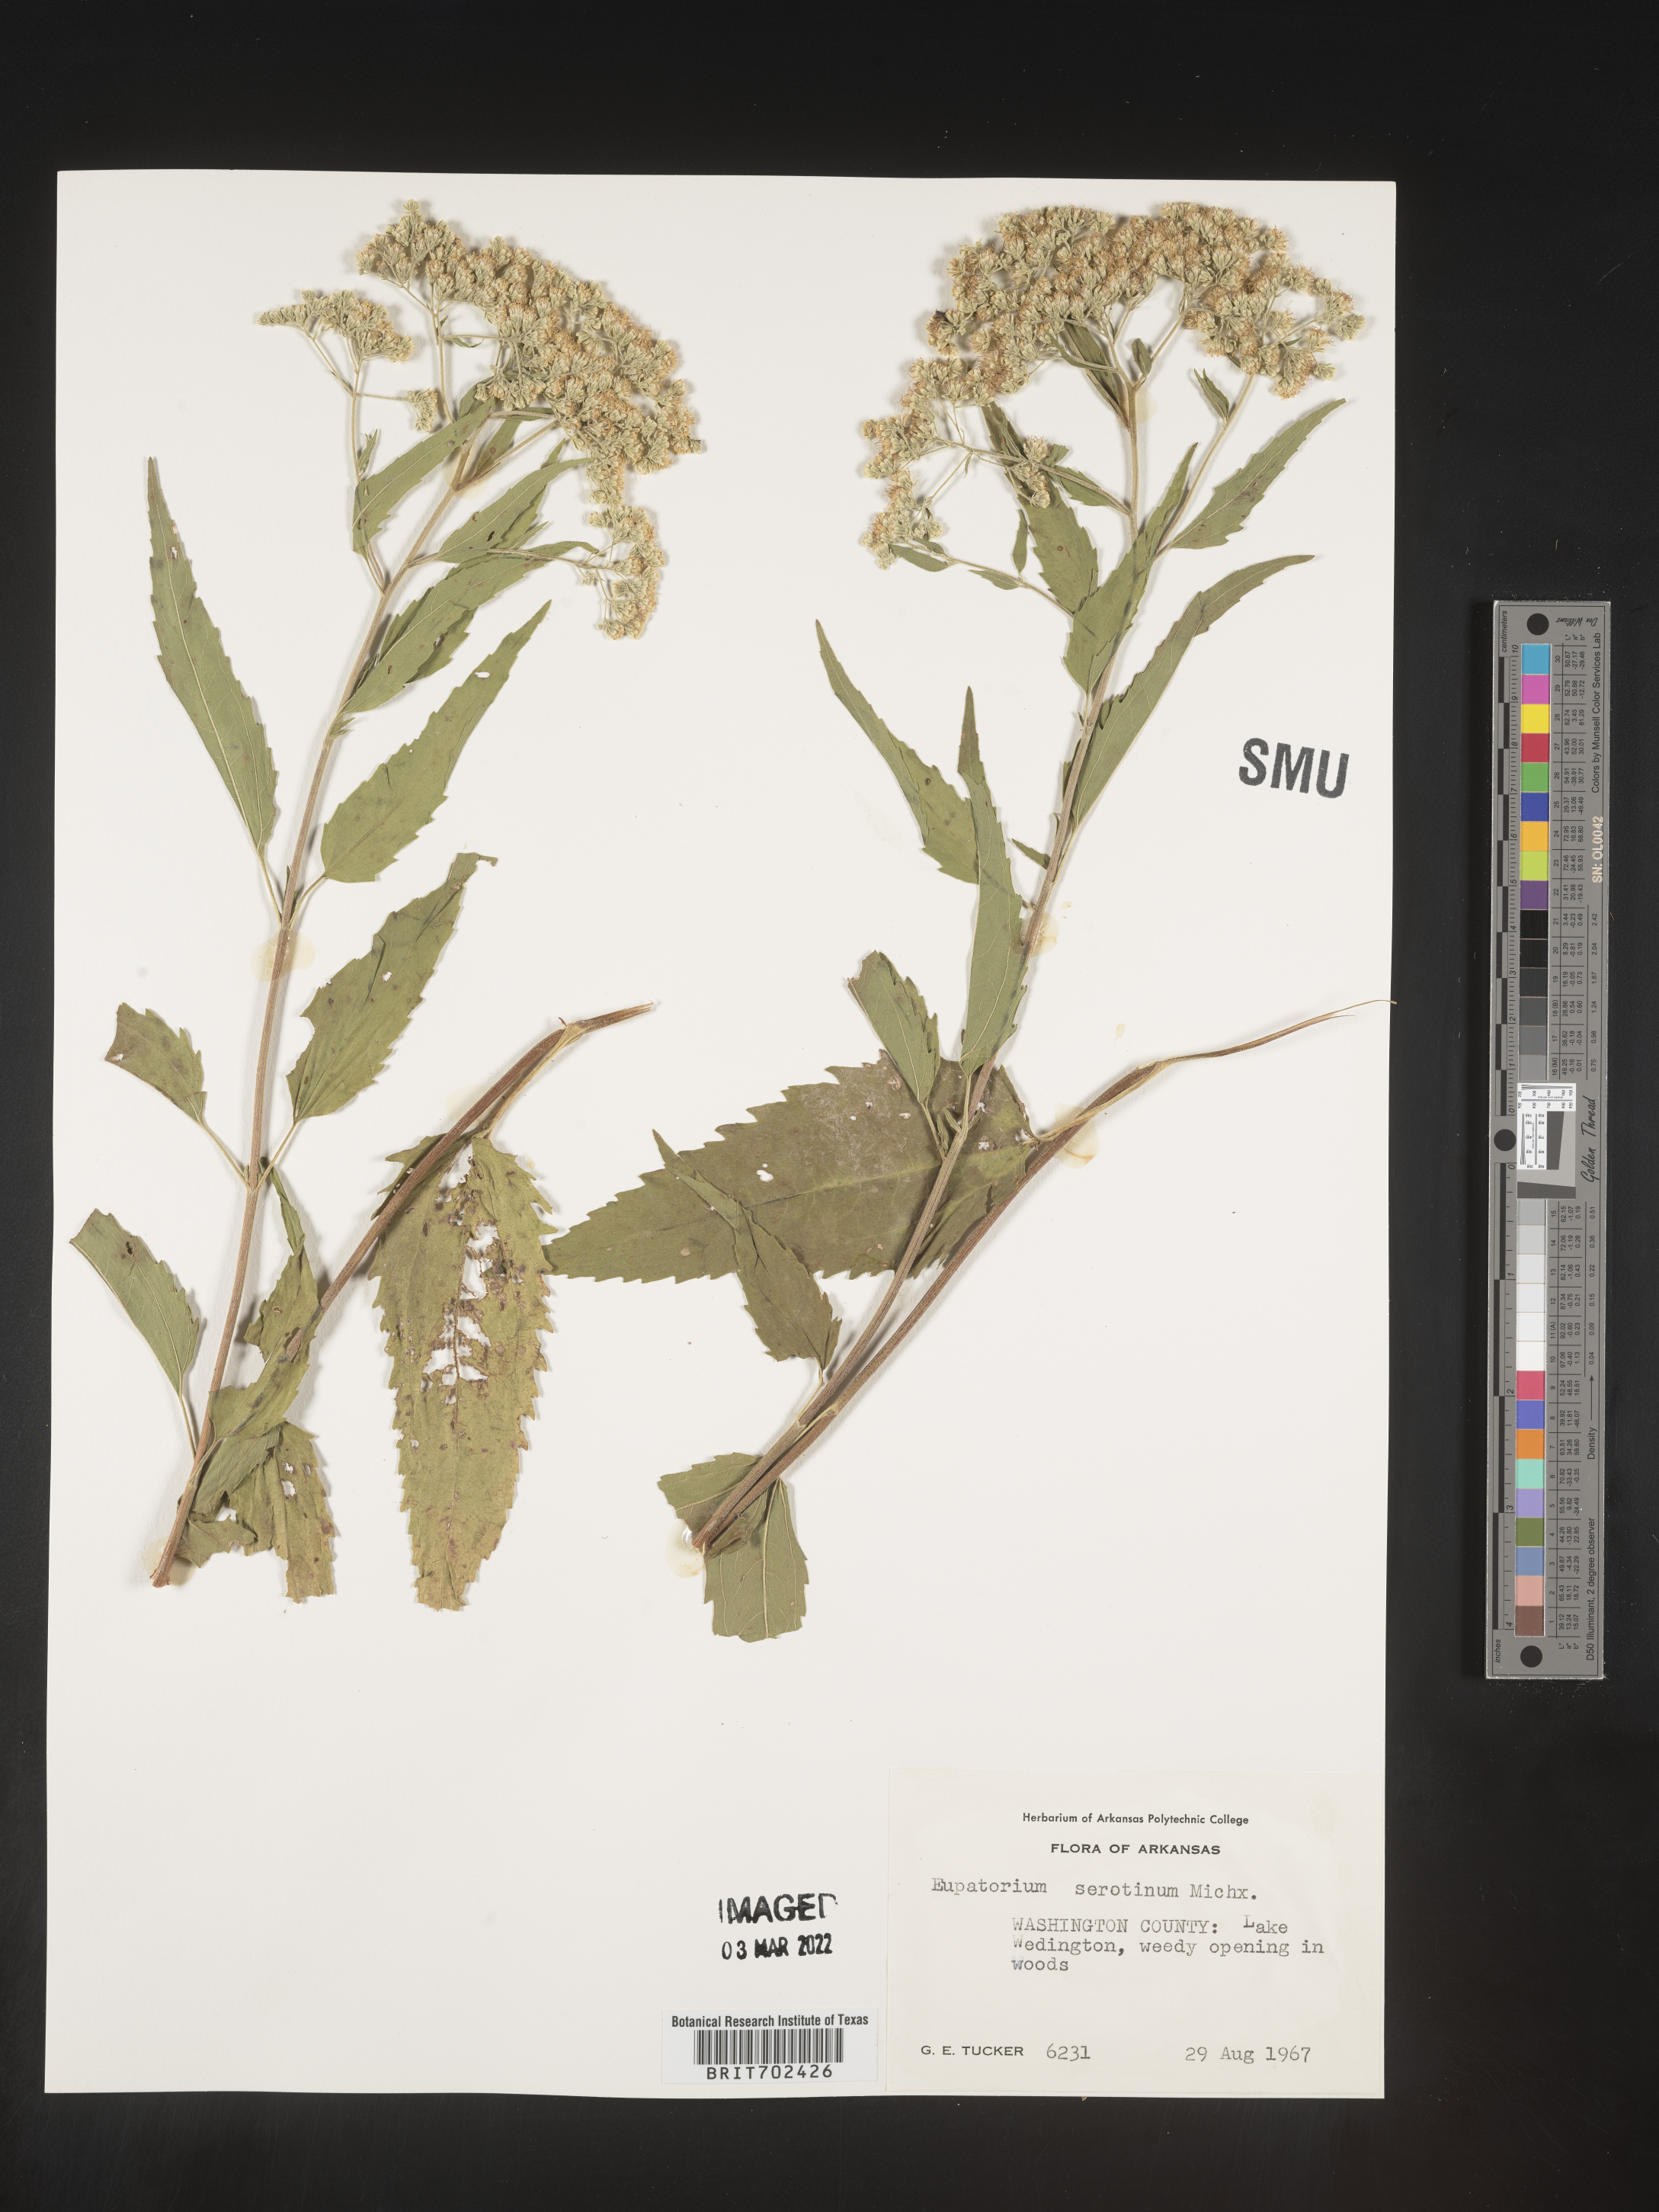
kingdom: Plantae
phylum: Tracheophyta
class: Magnoliopsida
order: Asterales
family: Asteraceae
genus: Eupatorium
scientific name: Eupatorium serotinum
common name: Late boneset
